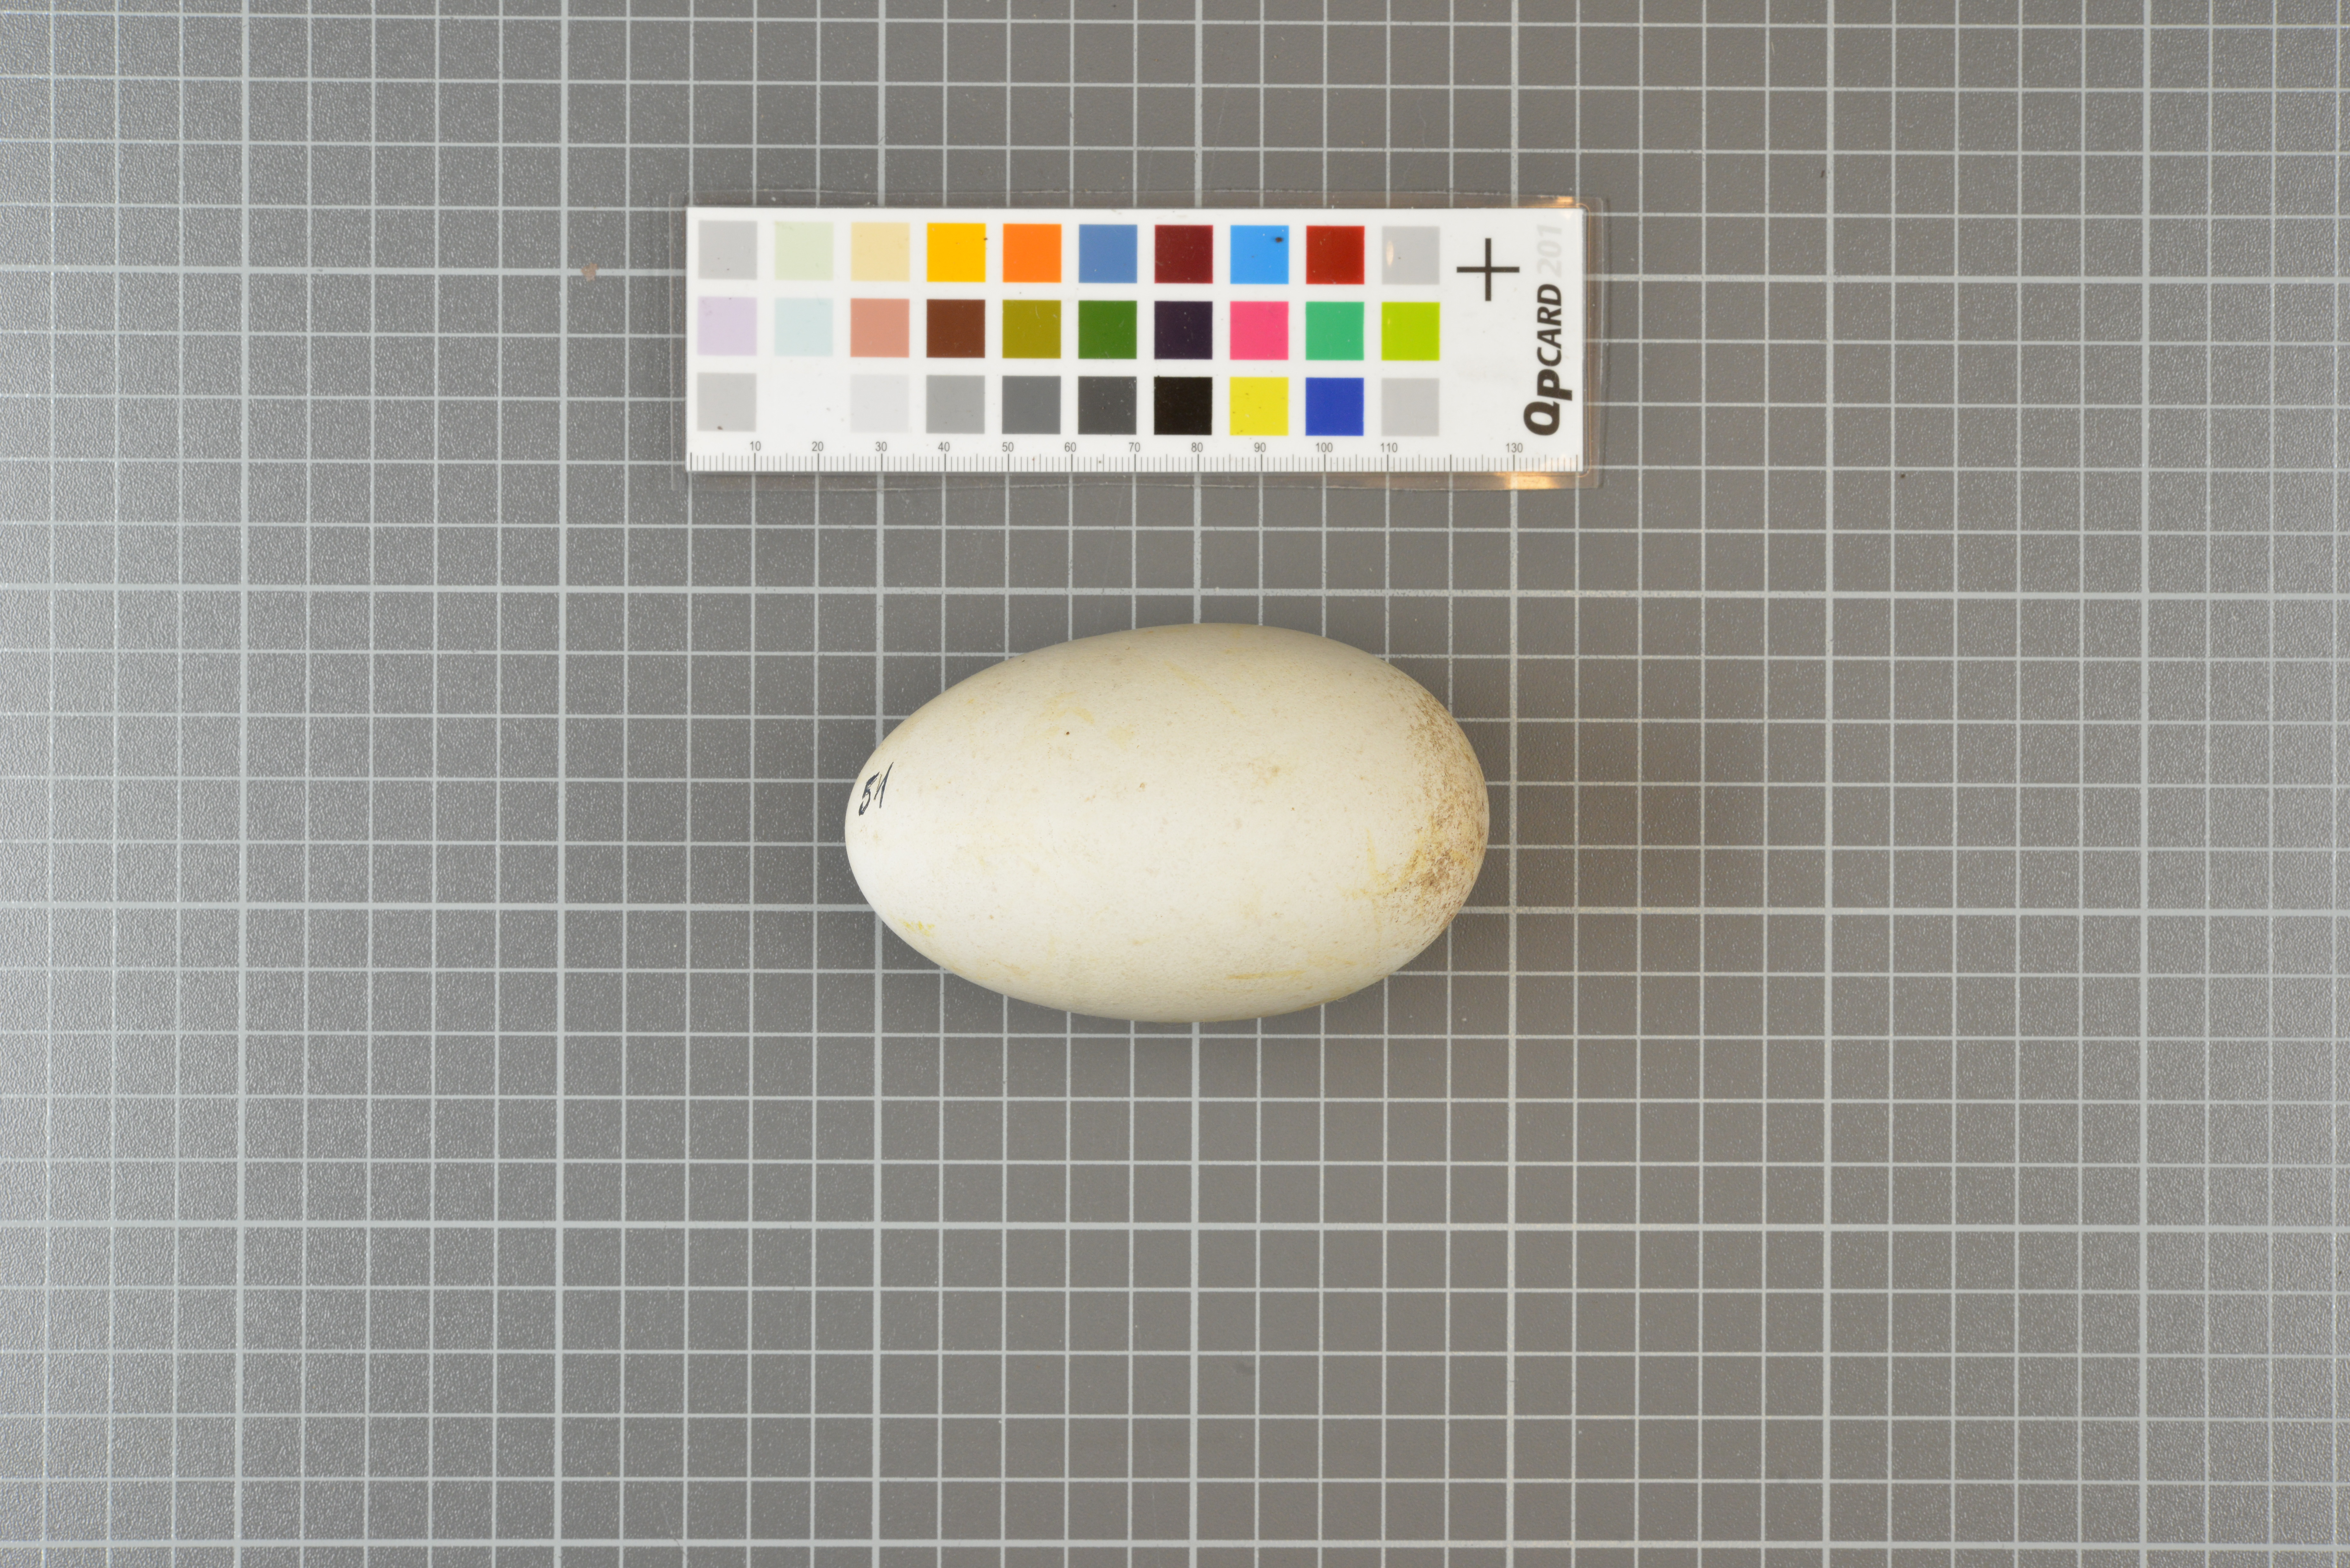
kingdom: Animalia
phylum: Chordata
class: Aves
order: Procellariiformes
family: Diomedeidae
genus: Thalassarche
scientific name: Thalassarche chlororhynchos
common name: Atlantic yellow-nosed albatross
